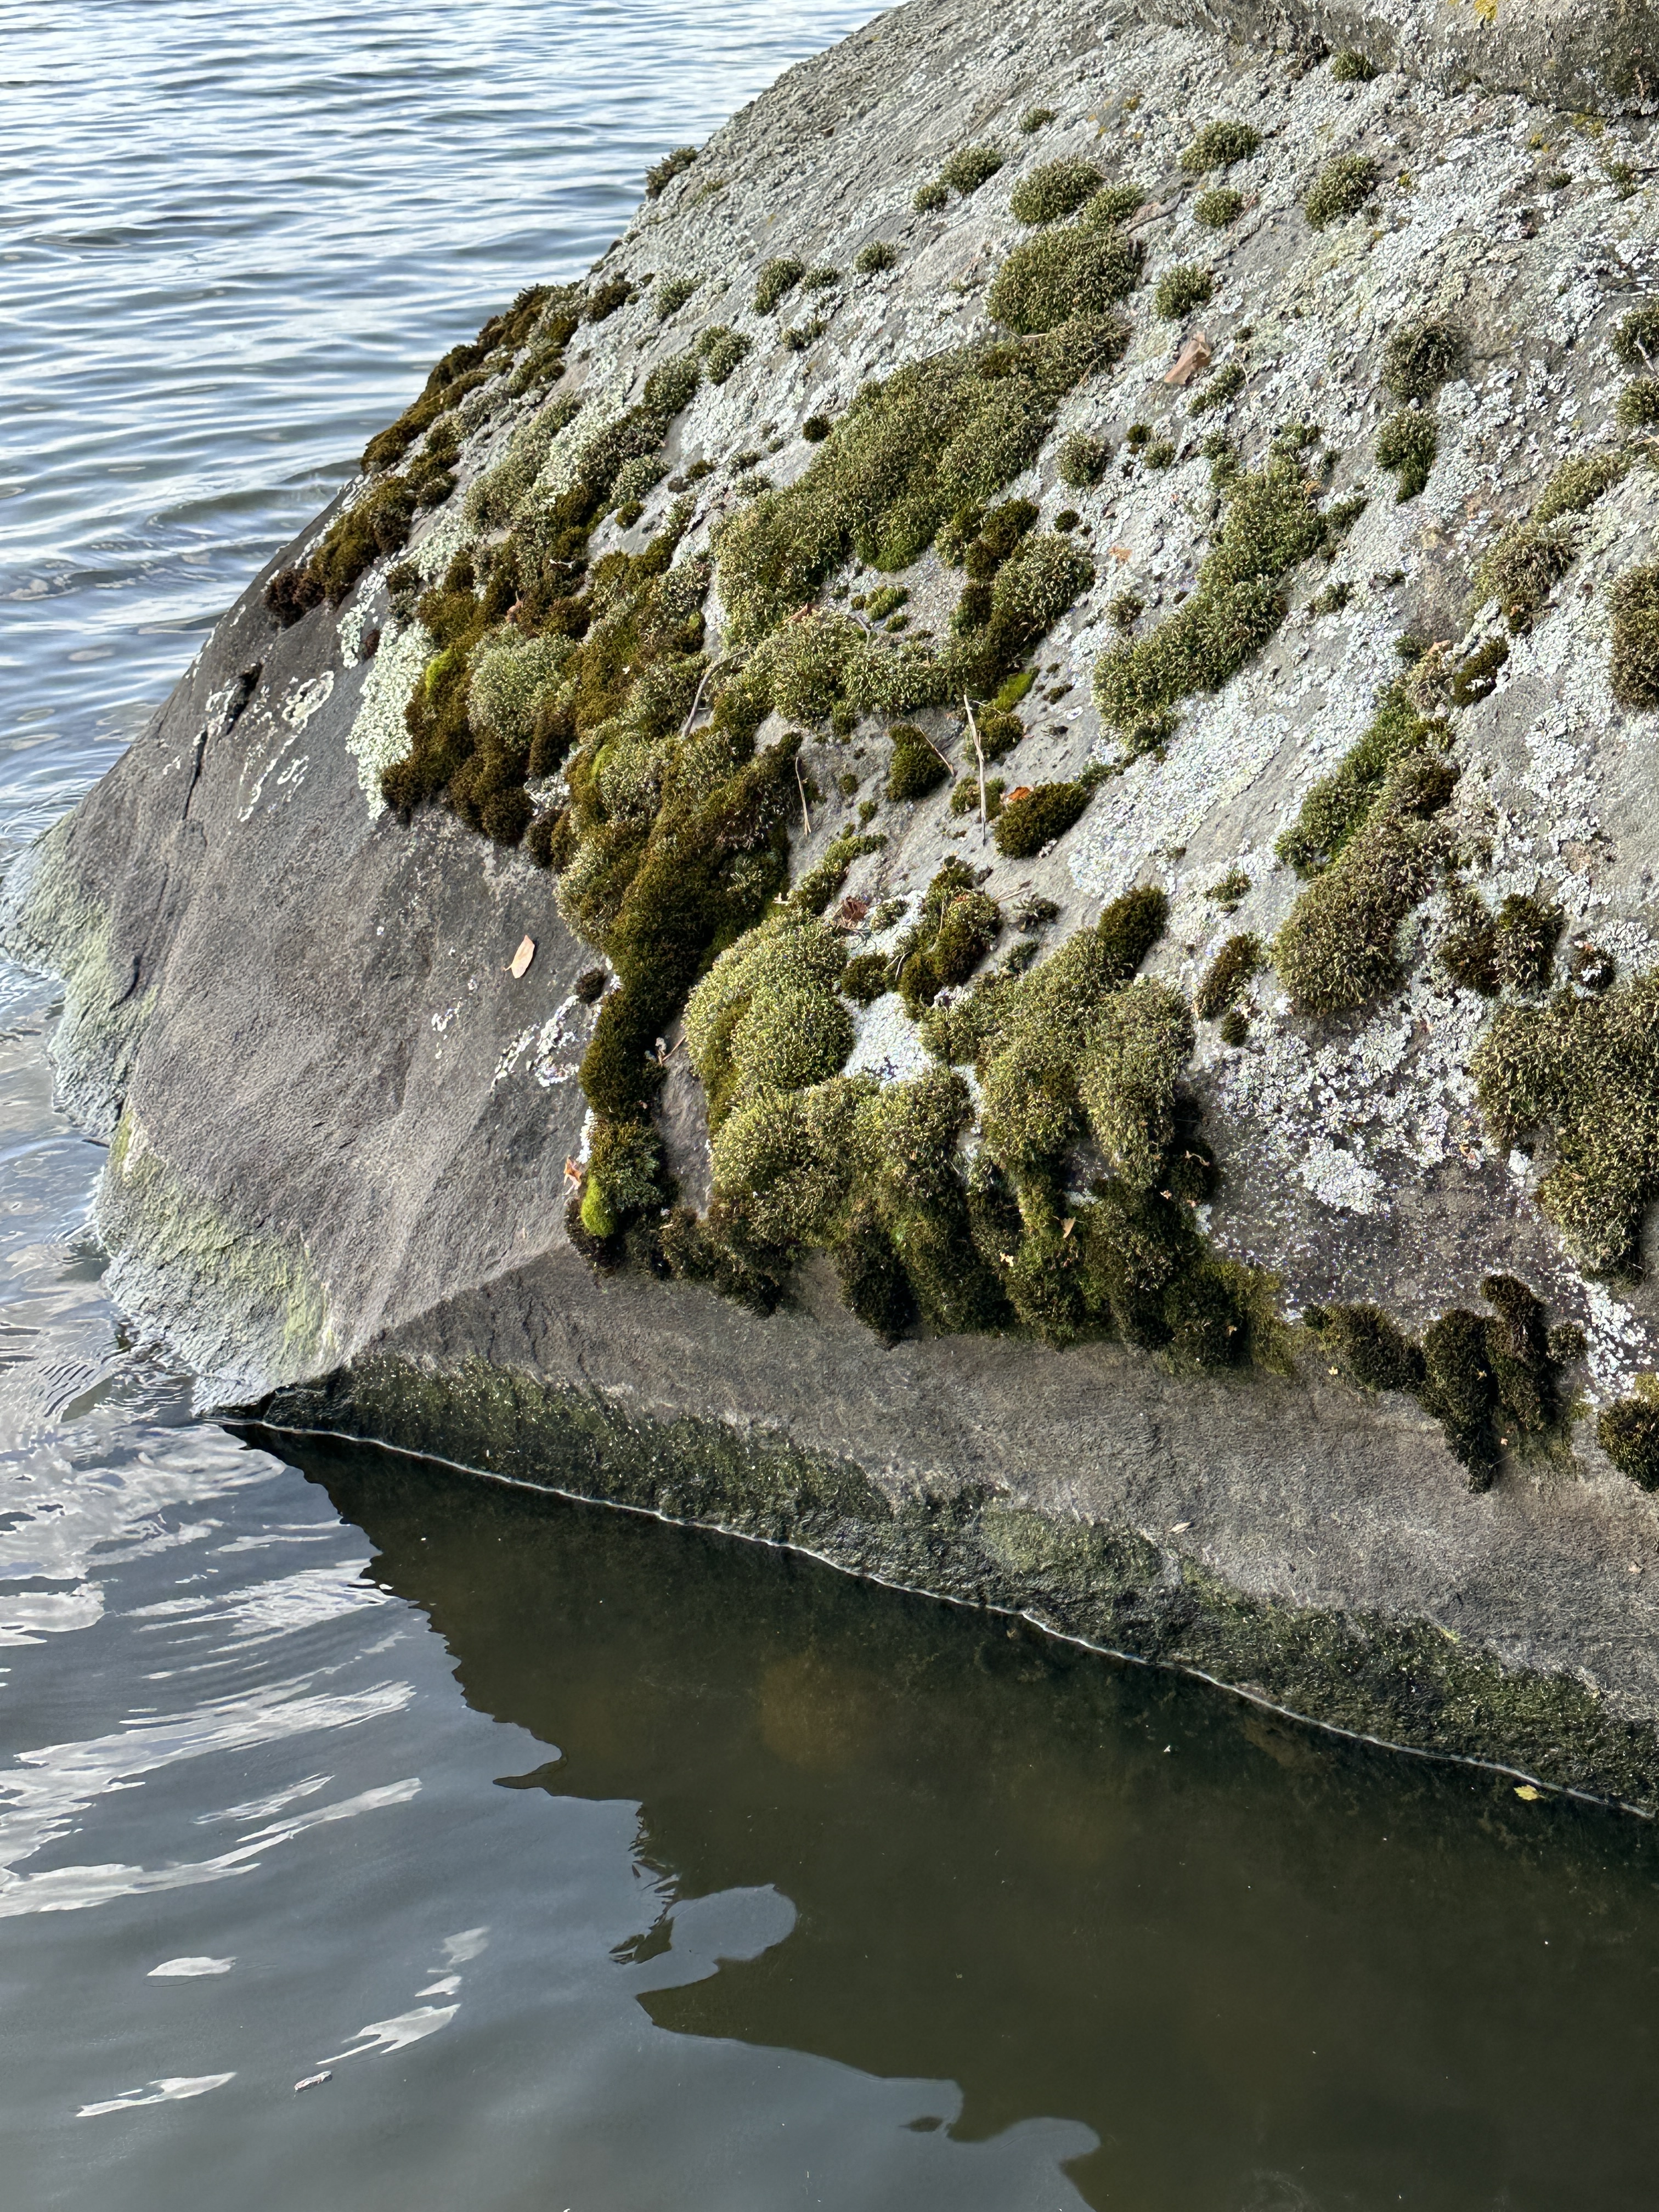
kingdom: Animalia
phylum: Bryozoa
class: Phylactolaemata
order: Plumatellida
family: Pectinatellidae
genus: Pectinatella
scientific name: Pectinatella magnifica
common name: Magnificent bryozoan
